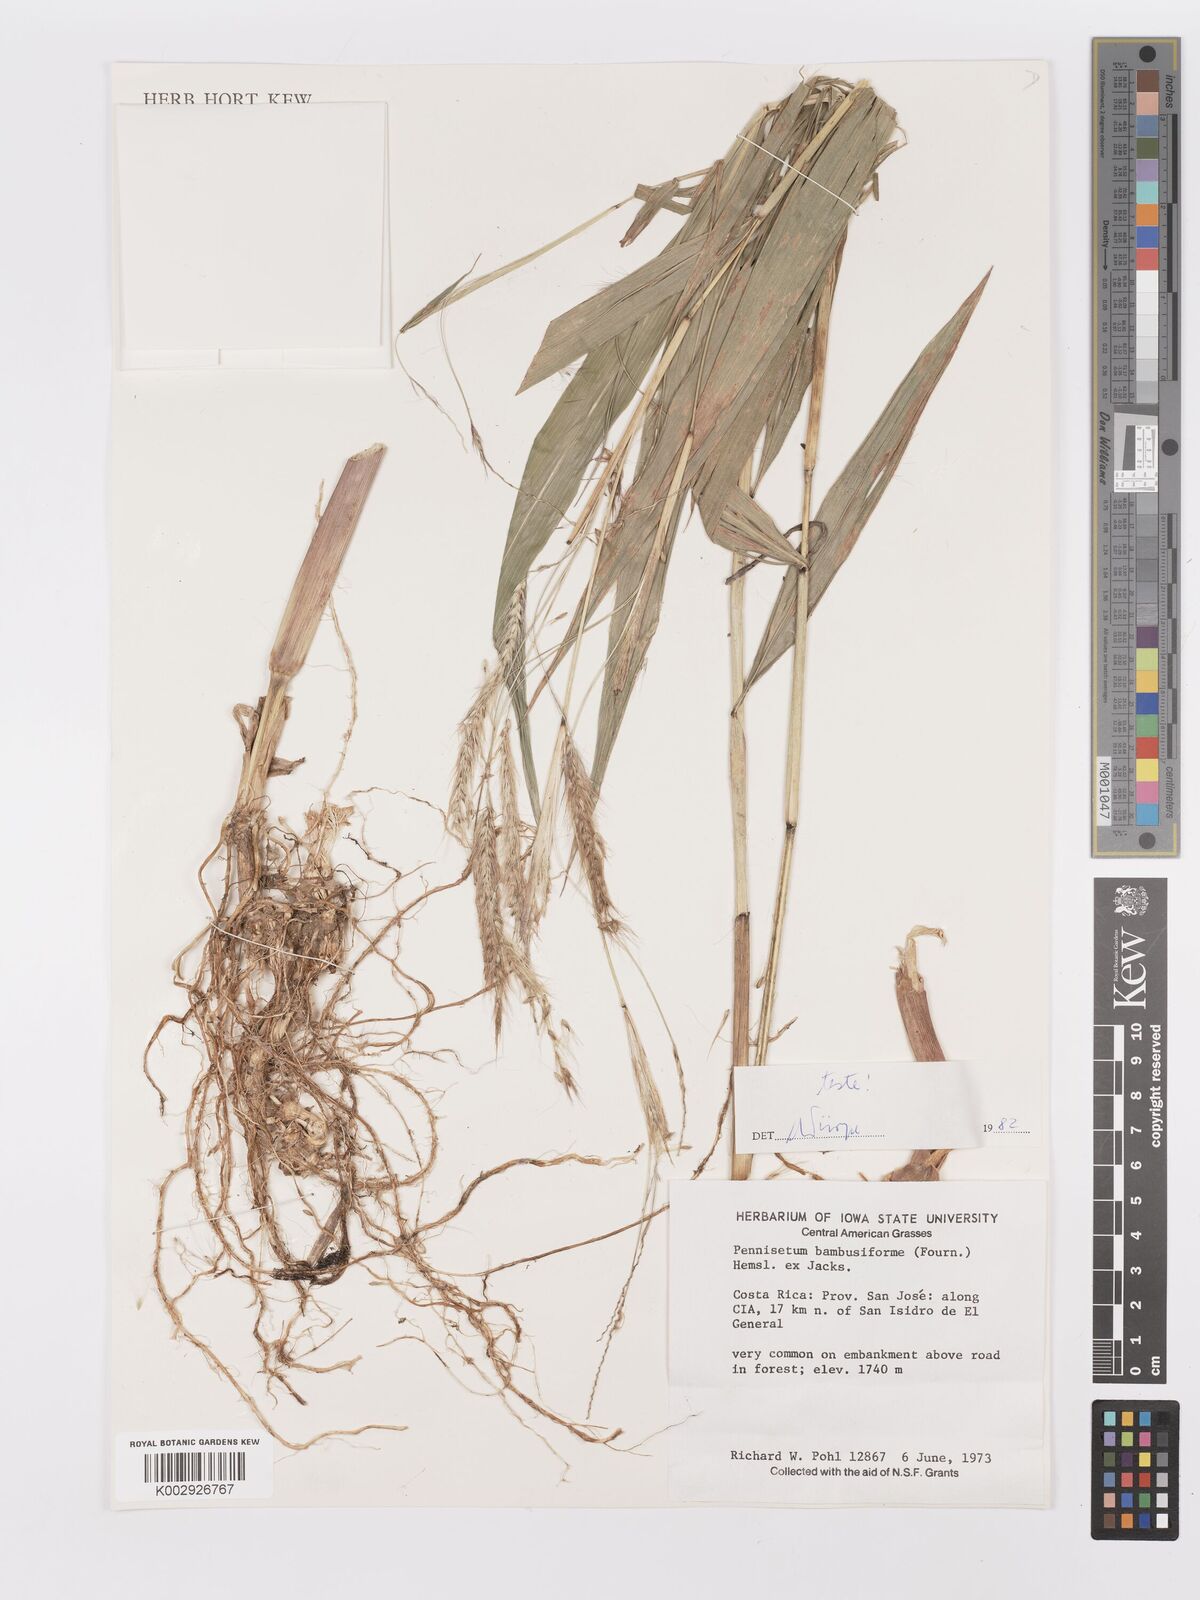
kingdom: Plantae
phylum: Tracheophyta
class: Liliopsida
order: Poales
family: Poaceae
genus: Cenchrus
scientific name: Cenchrus preslii
